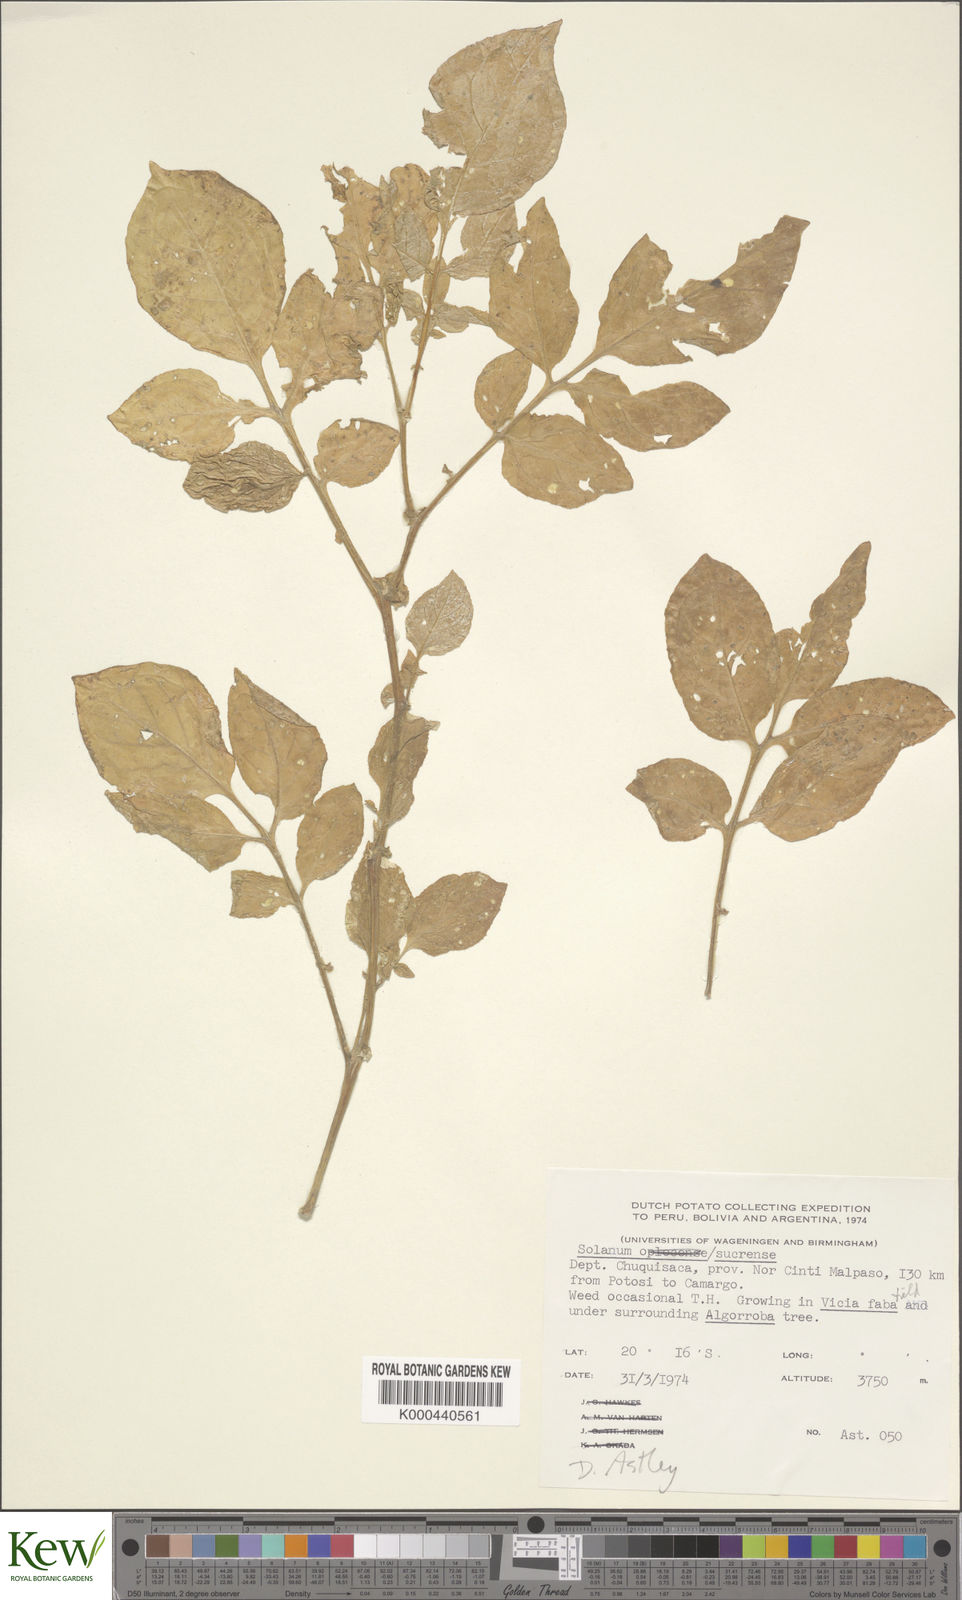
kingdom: Plantae
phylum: Tracheophyta
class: Magnoliopsida
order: Solanales
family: Solanaceae
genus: Solanum
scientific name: Solanum brevicaule
